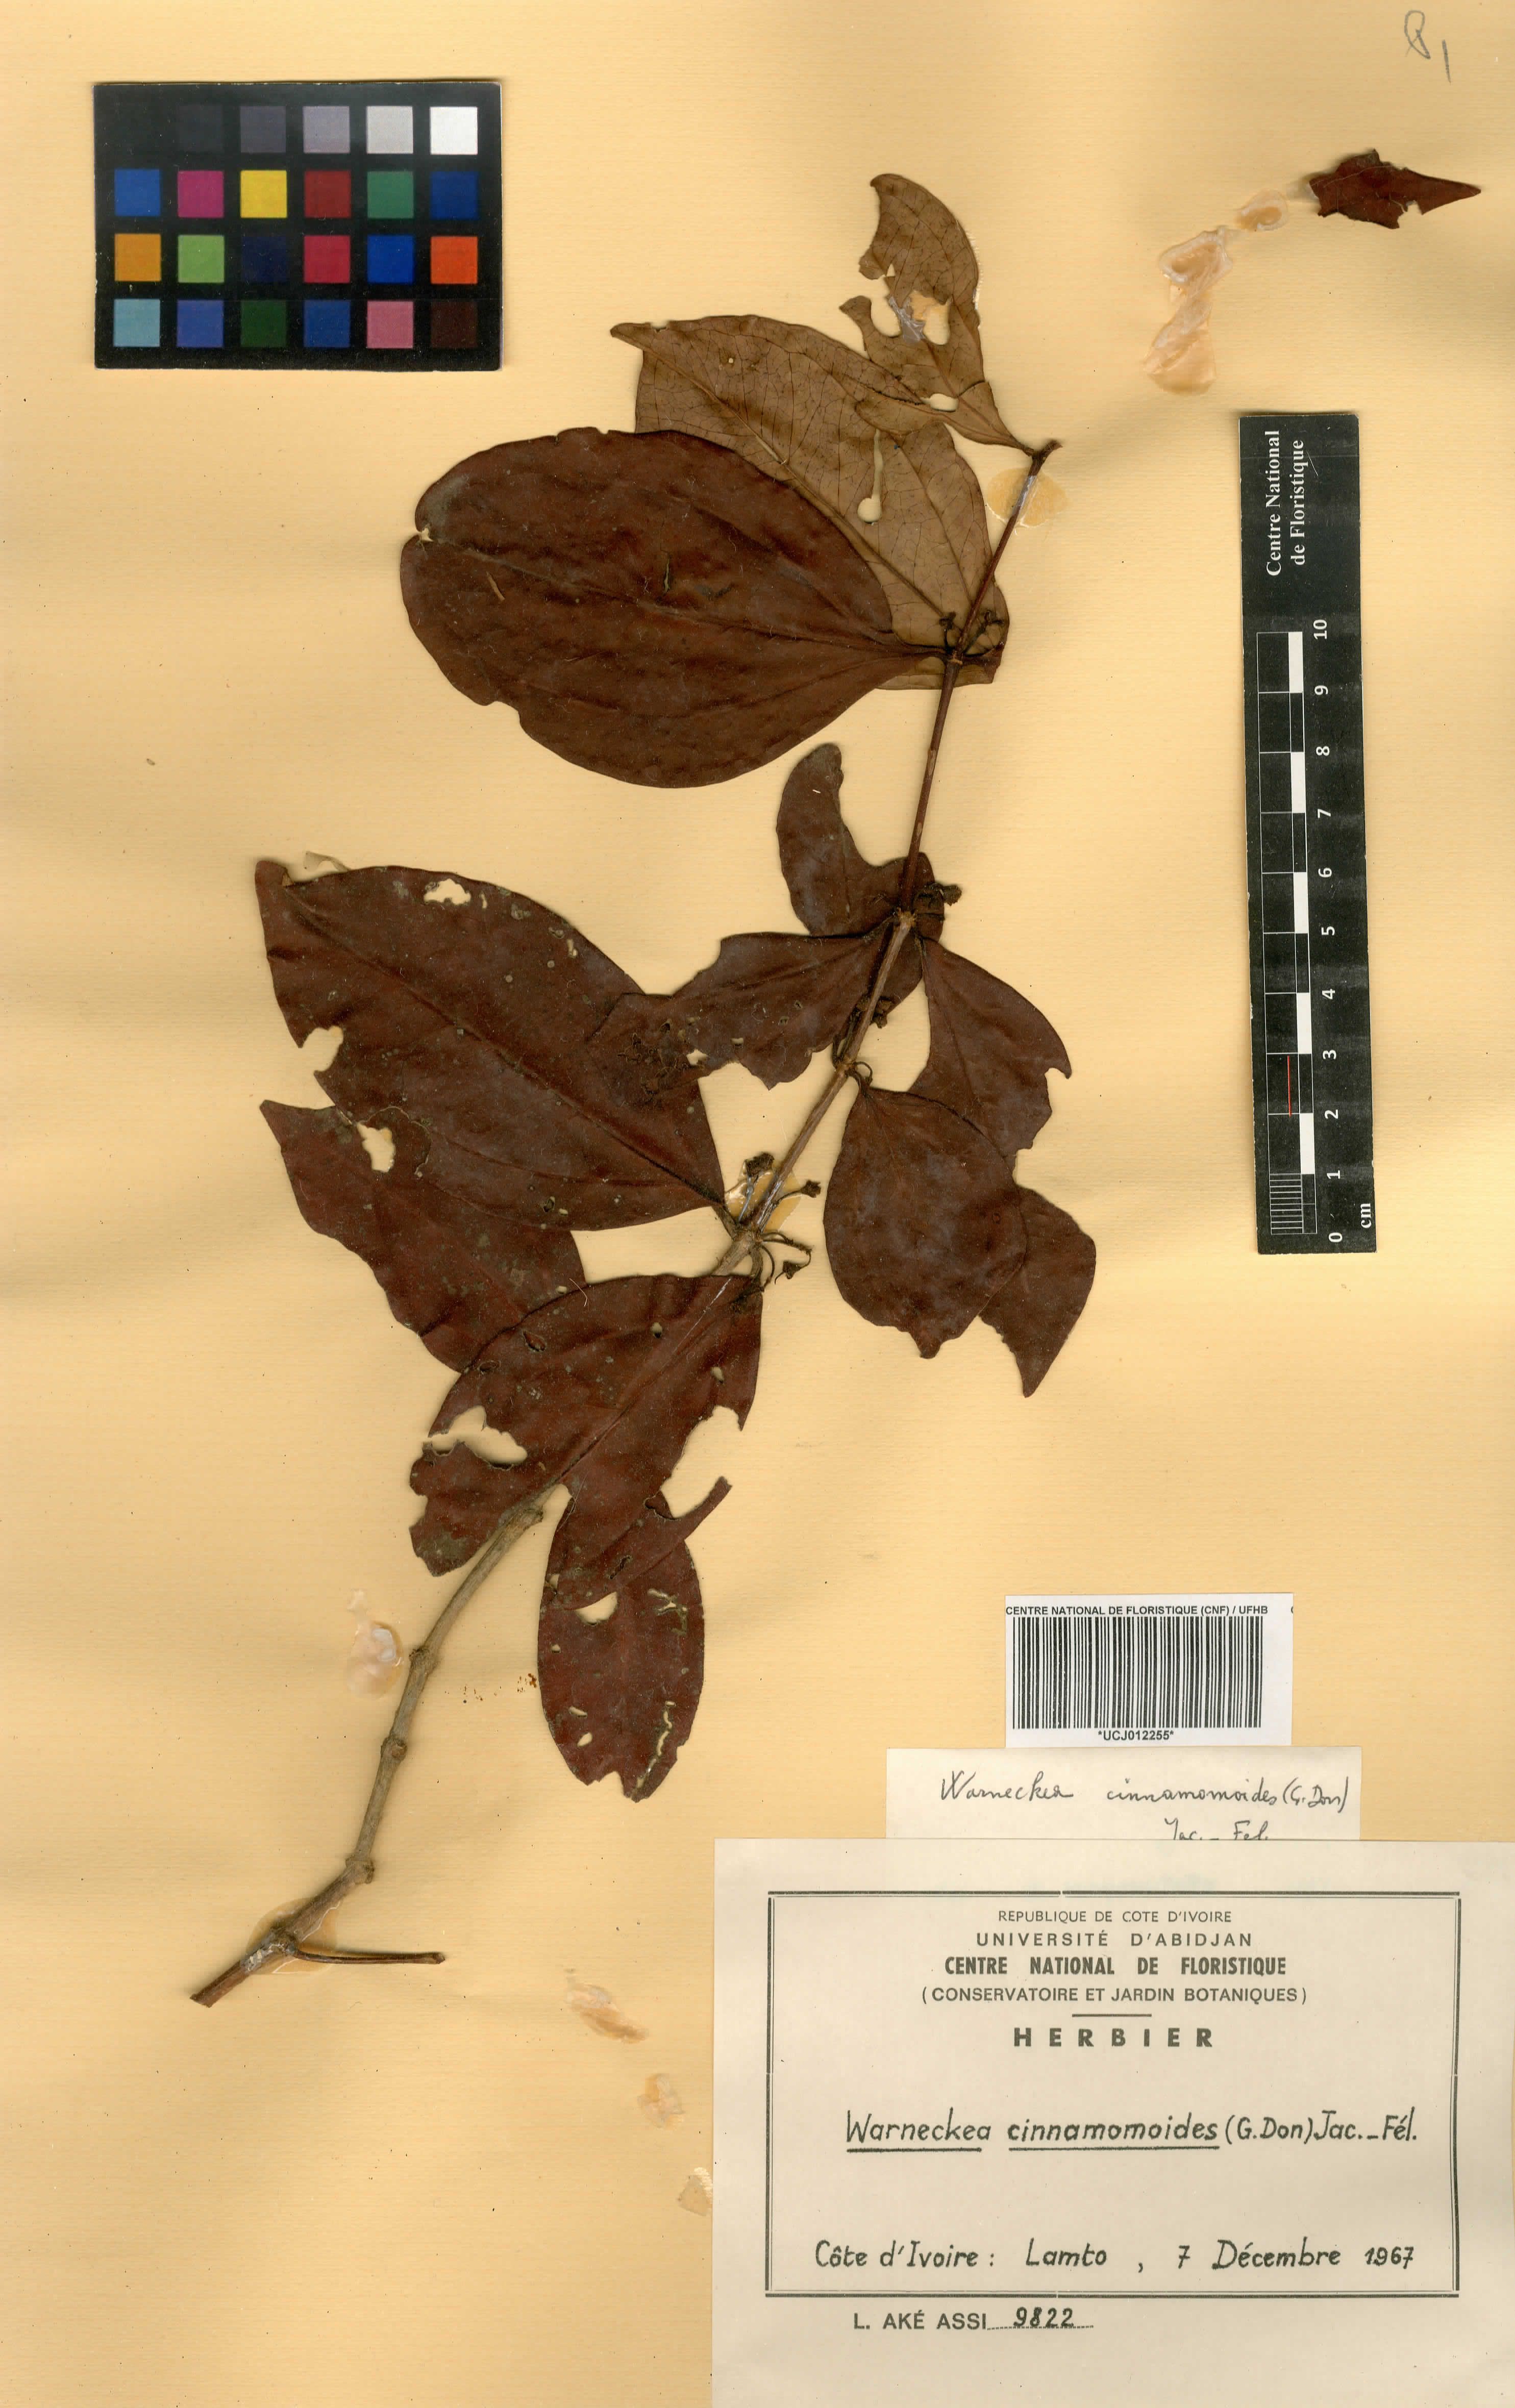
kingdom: Plantae
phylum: Tracheophyta
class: Magnoliopsida
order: Myrtales
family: Melastomataceae
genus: Warneckea
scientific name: Warneckea cinnamomoides
